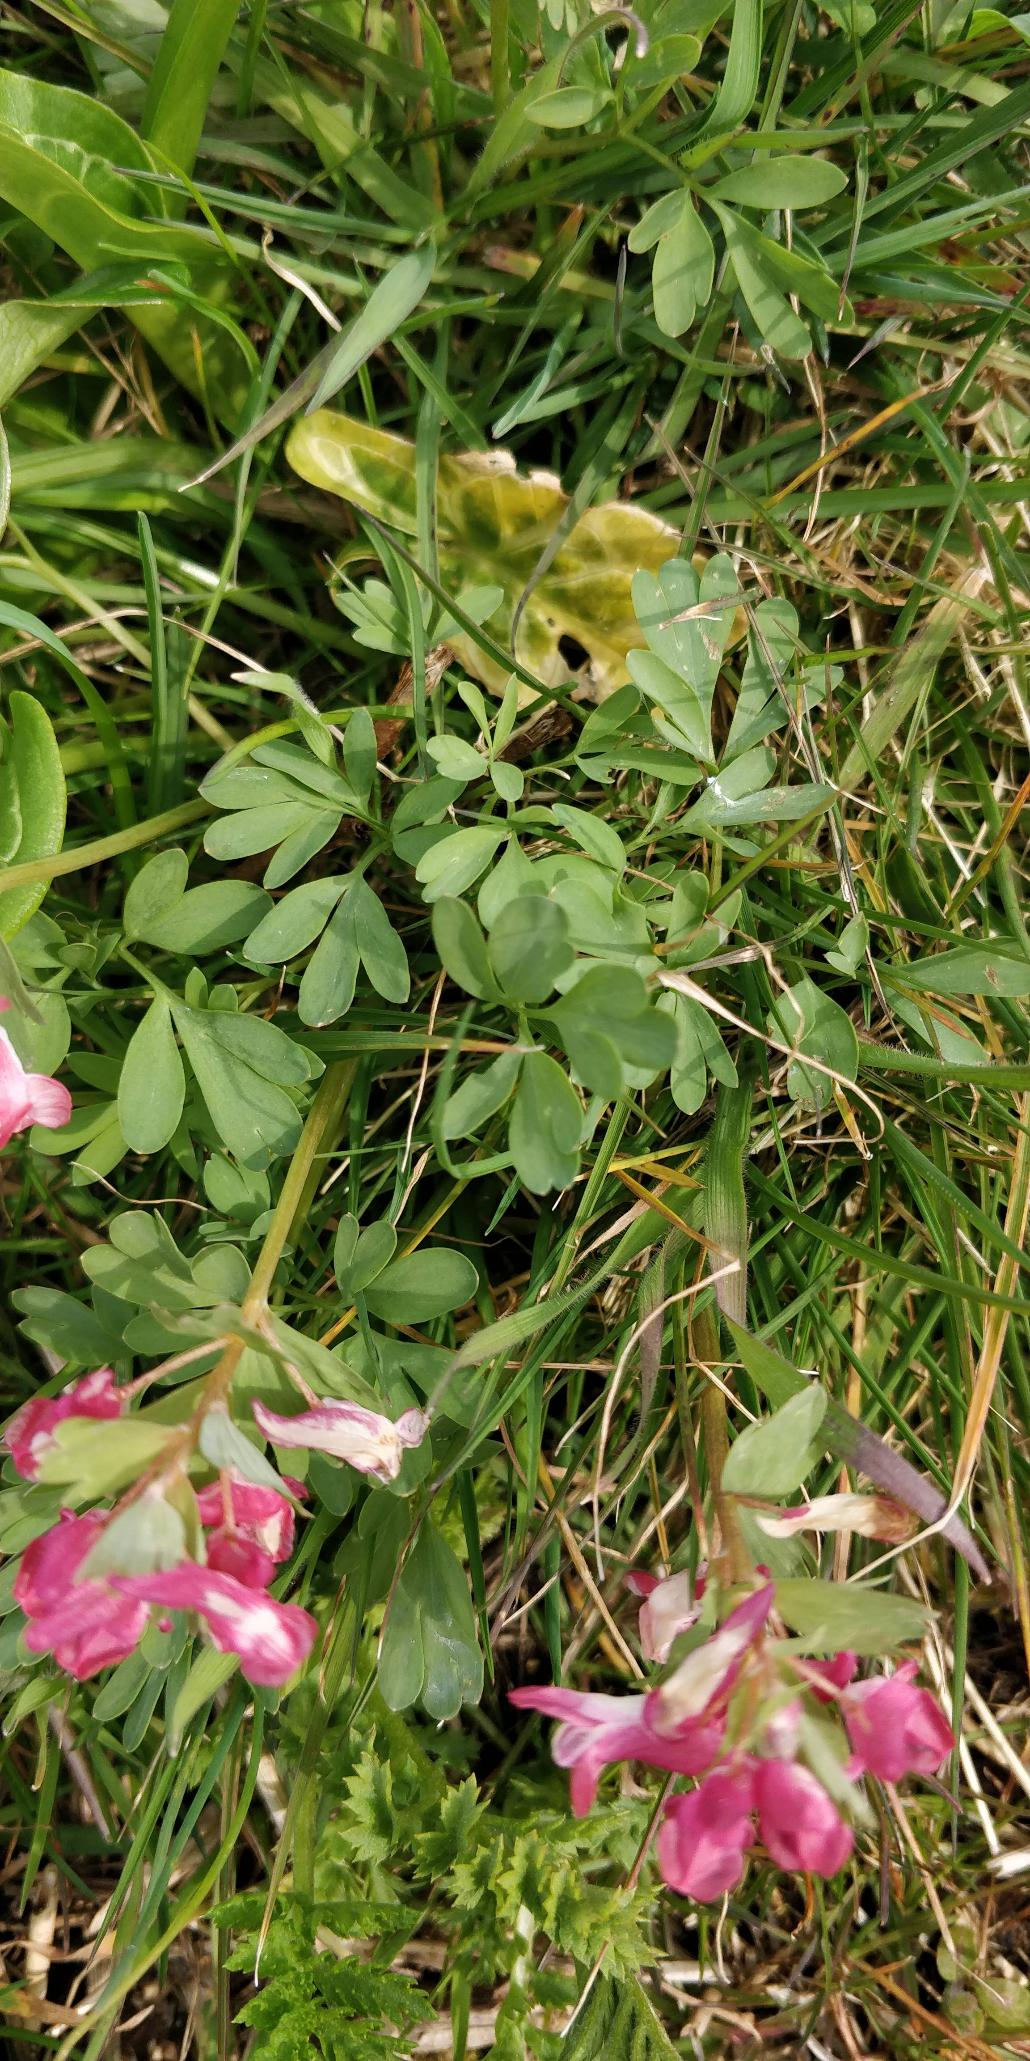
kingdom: Plantae
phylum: Tracheophyta
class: Magnoliopsida
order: Ranunculales
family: Papaveraceae
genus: Corydalis
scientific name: Corydalis solida
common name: Langstilket lærkespore
